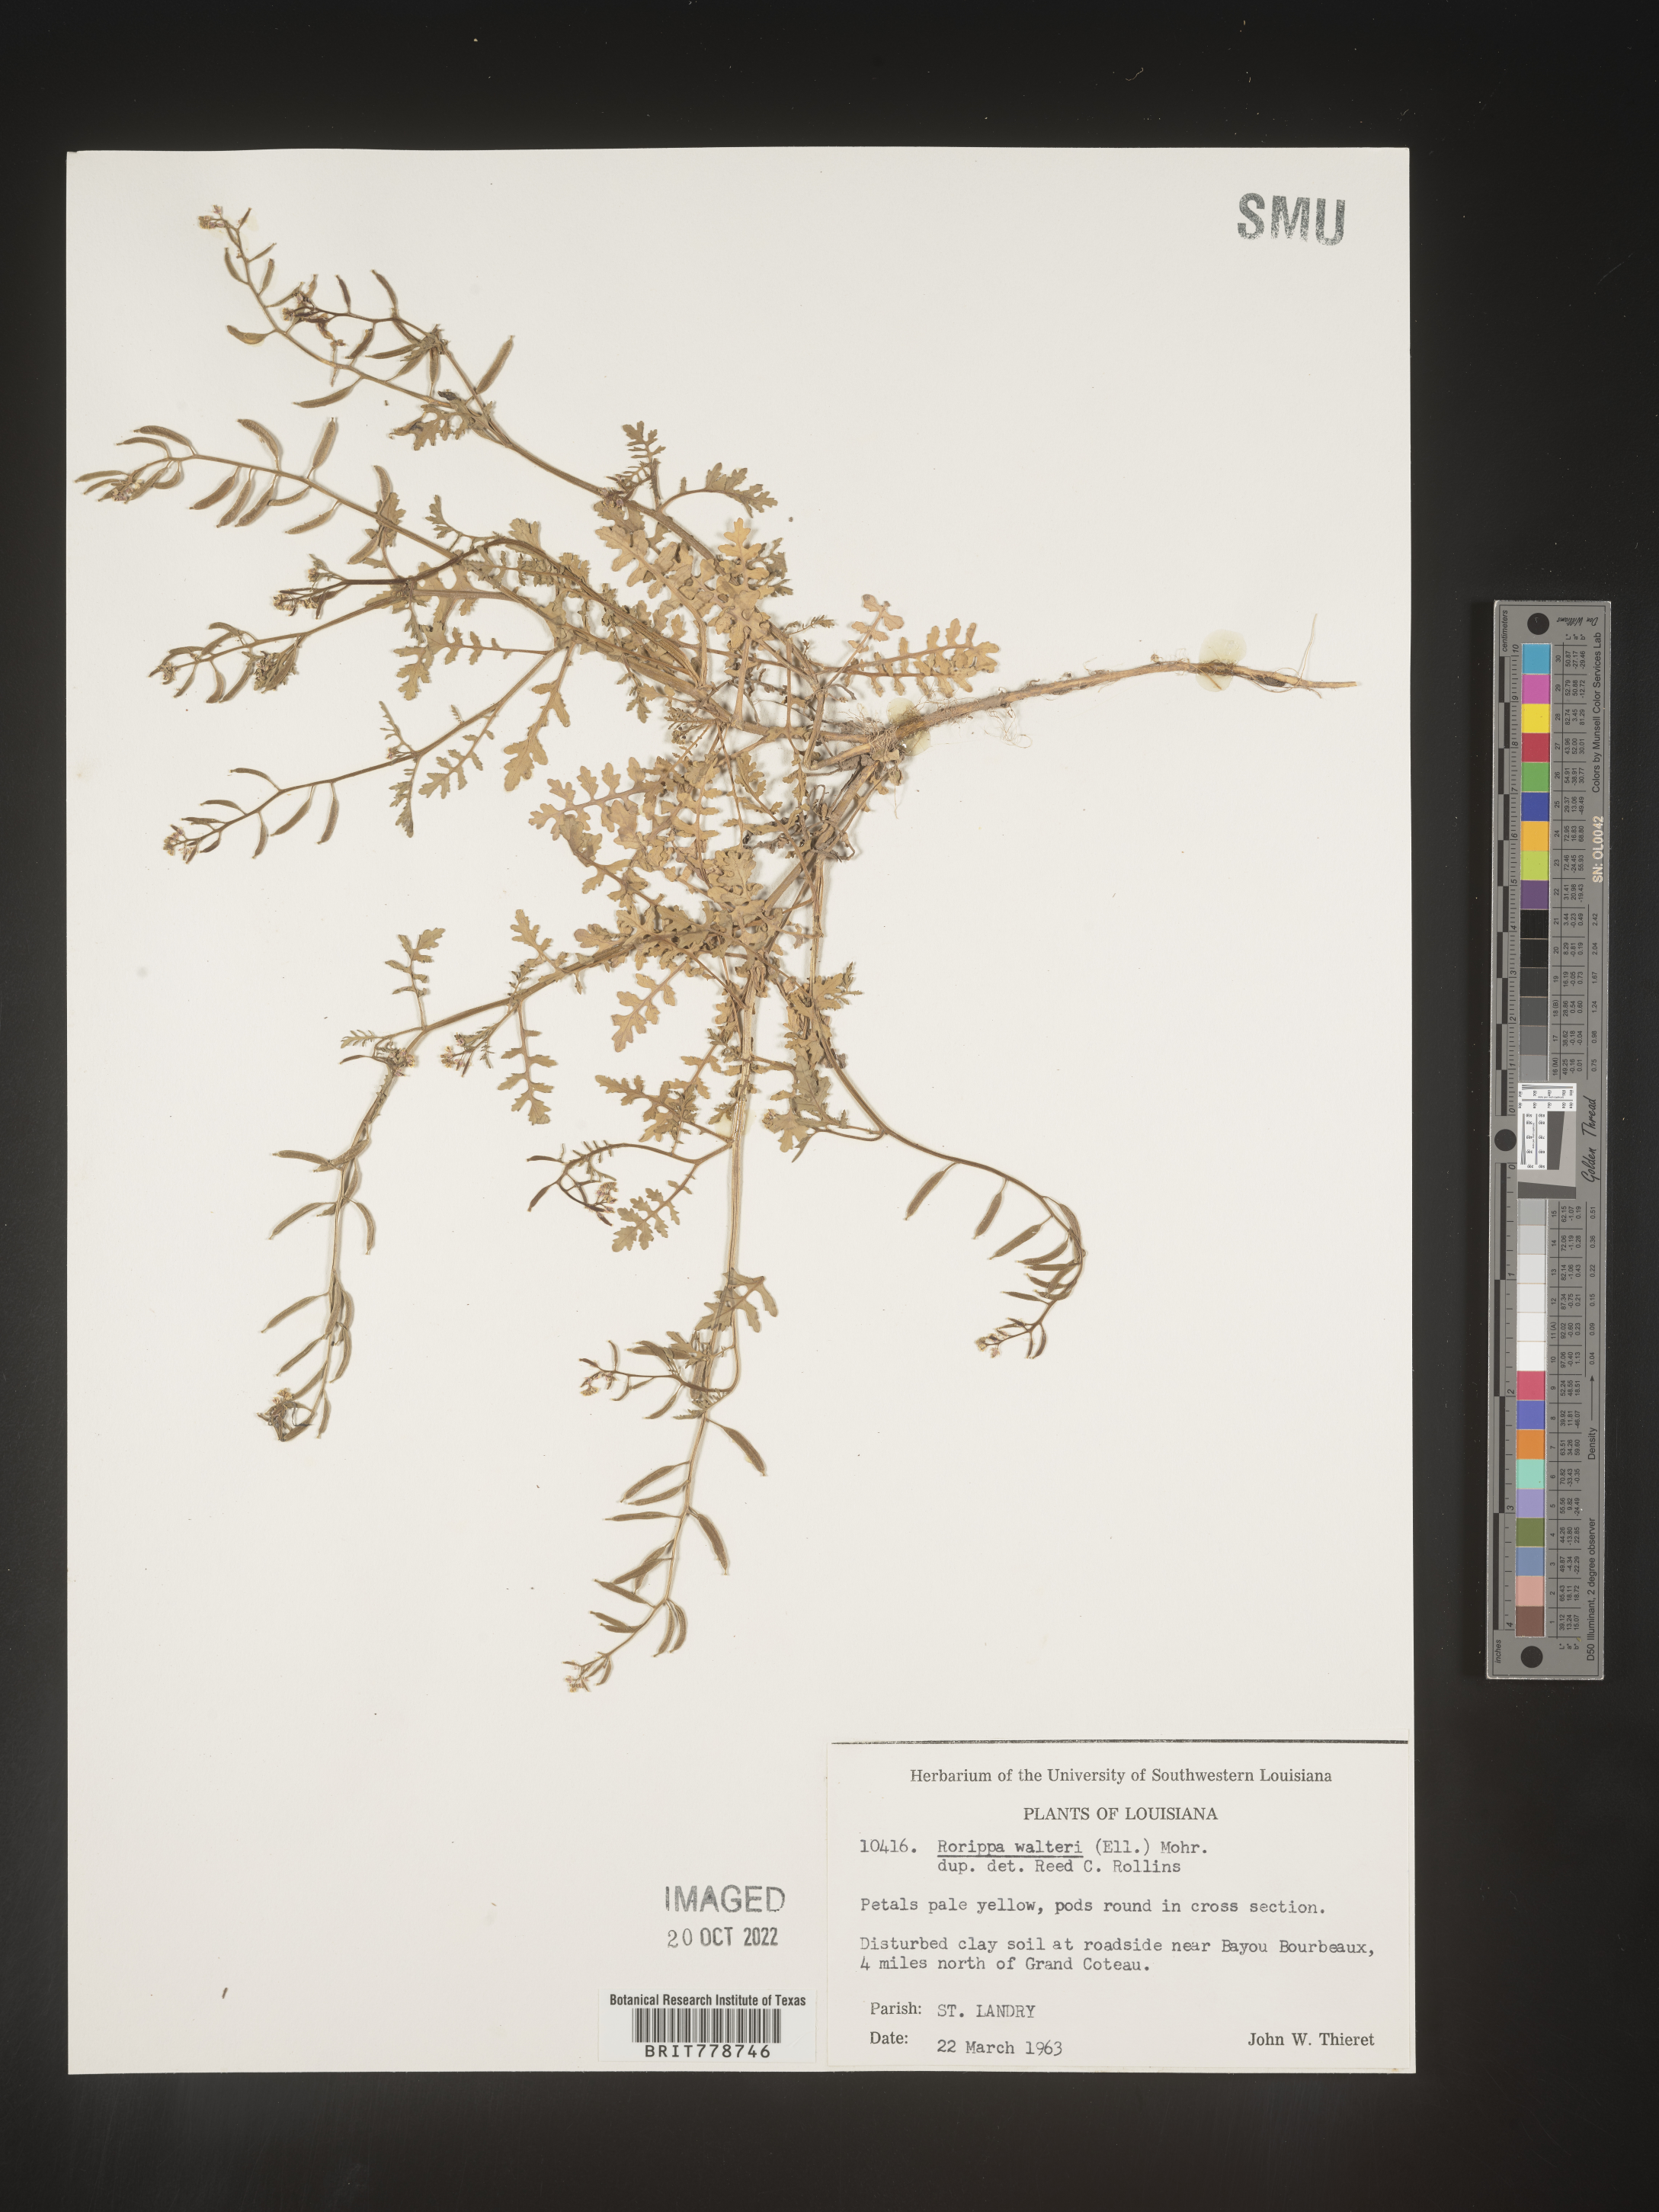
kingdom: Plantae
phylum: Tracheophyta
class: Magnoliopsida
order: Brassicales
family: Brassicaceae
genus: Rorippa
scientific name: Rorippa teres
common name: Southern marsh yellowcress
